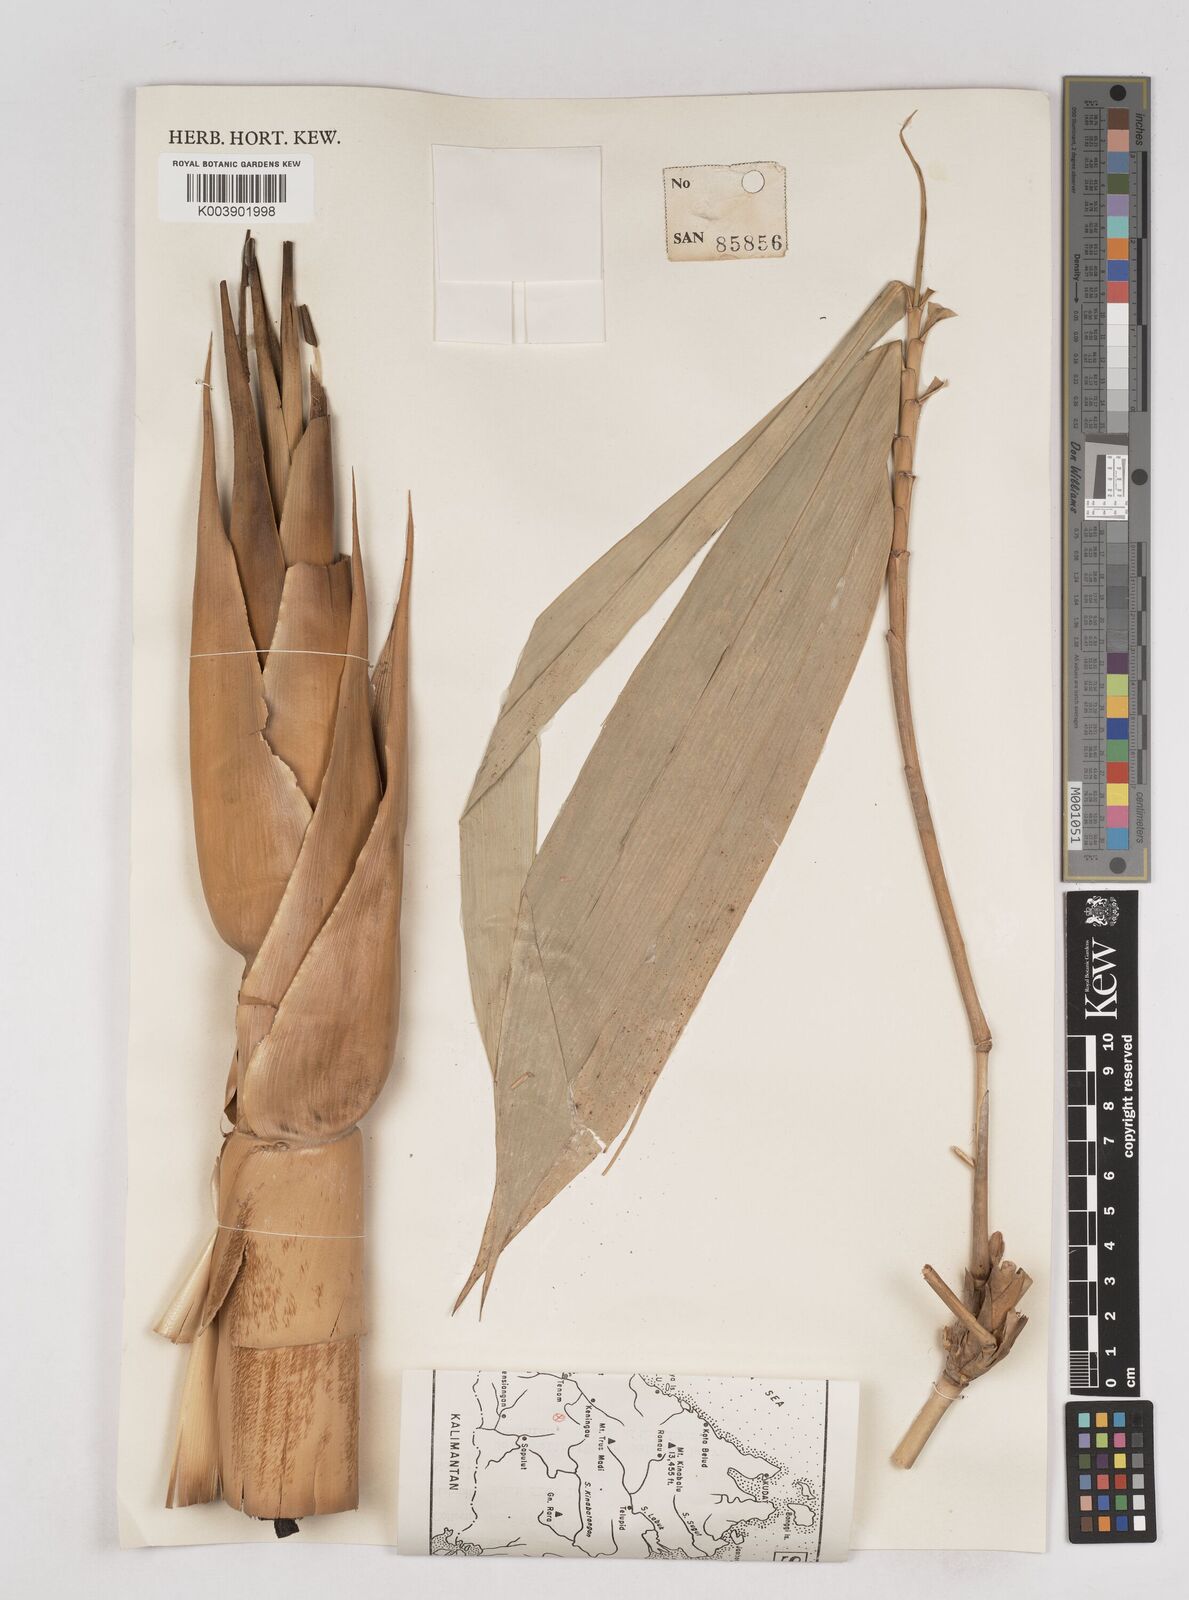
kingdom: Plantae
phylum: Tracheophyta
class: Liliopsida
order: Poales
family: Poaceae
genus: Schizostachyum
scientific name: Schizostachyum brachycladum
